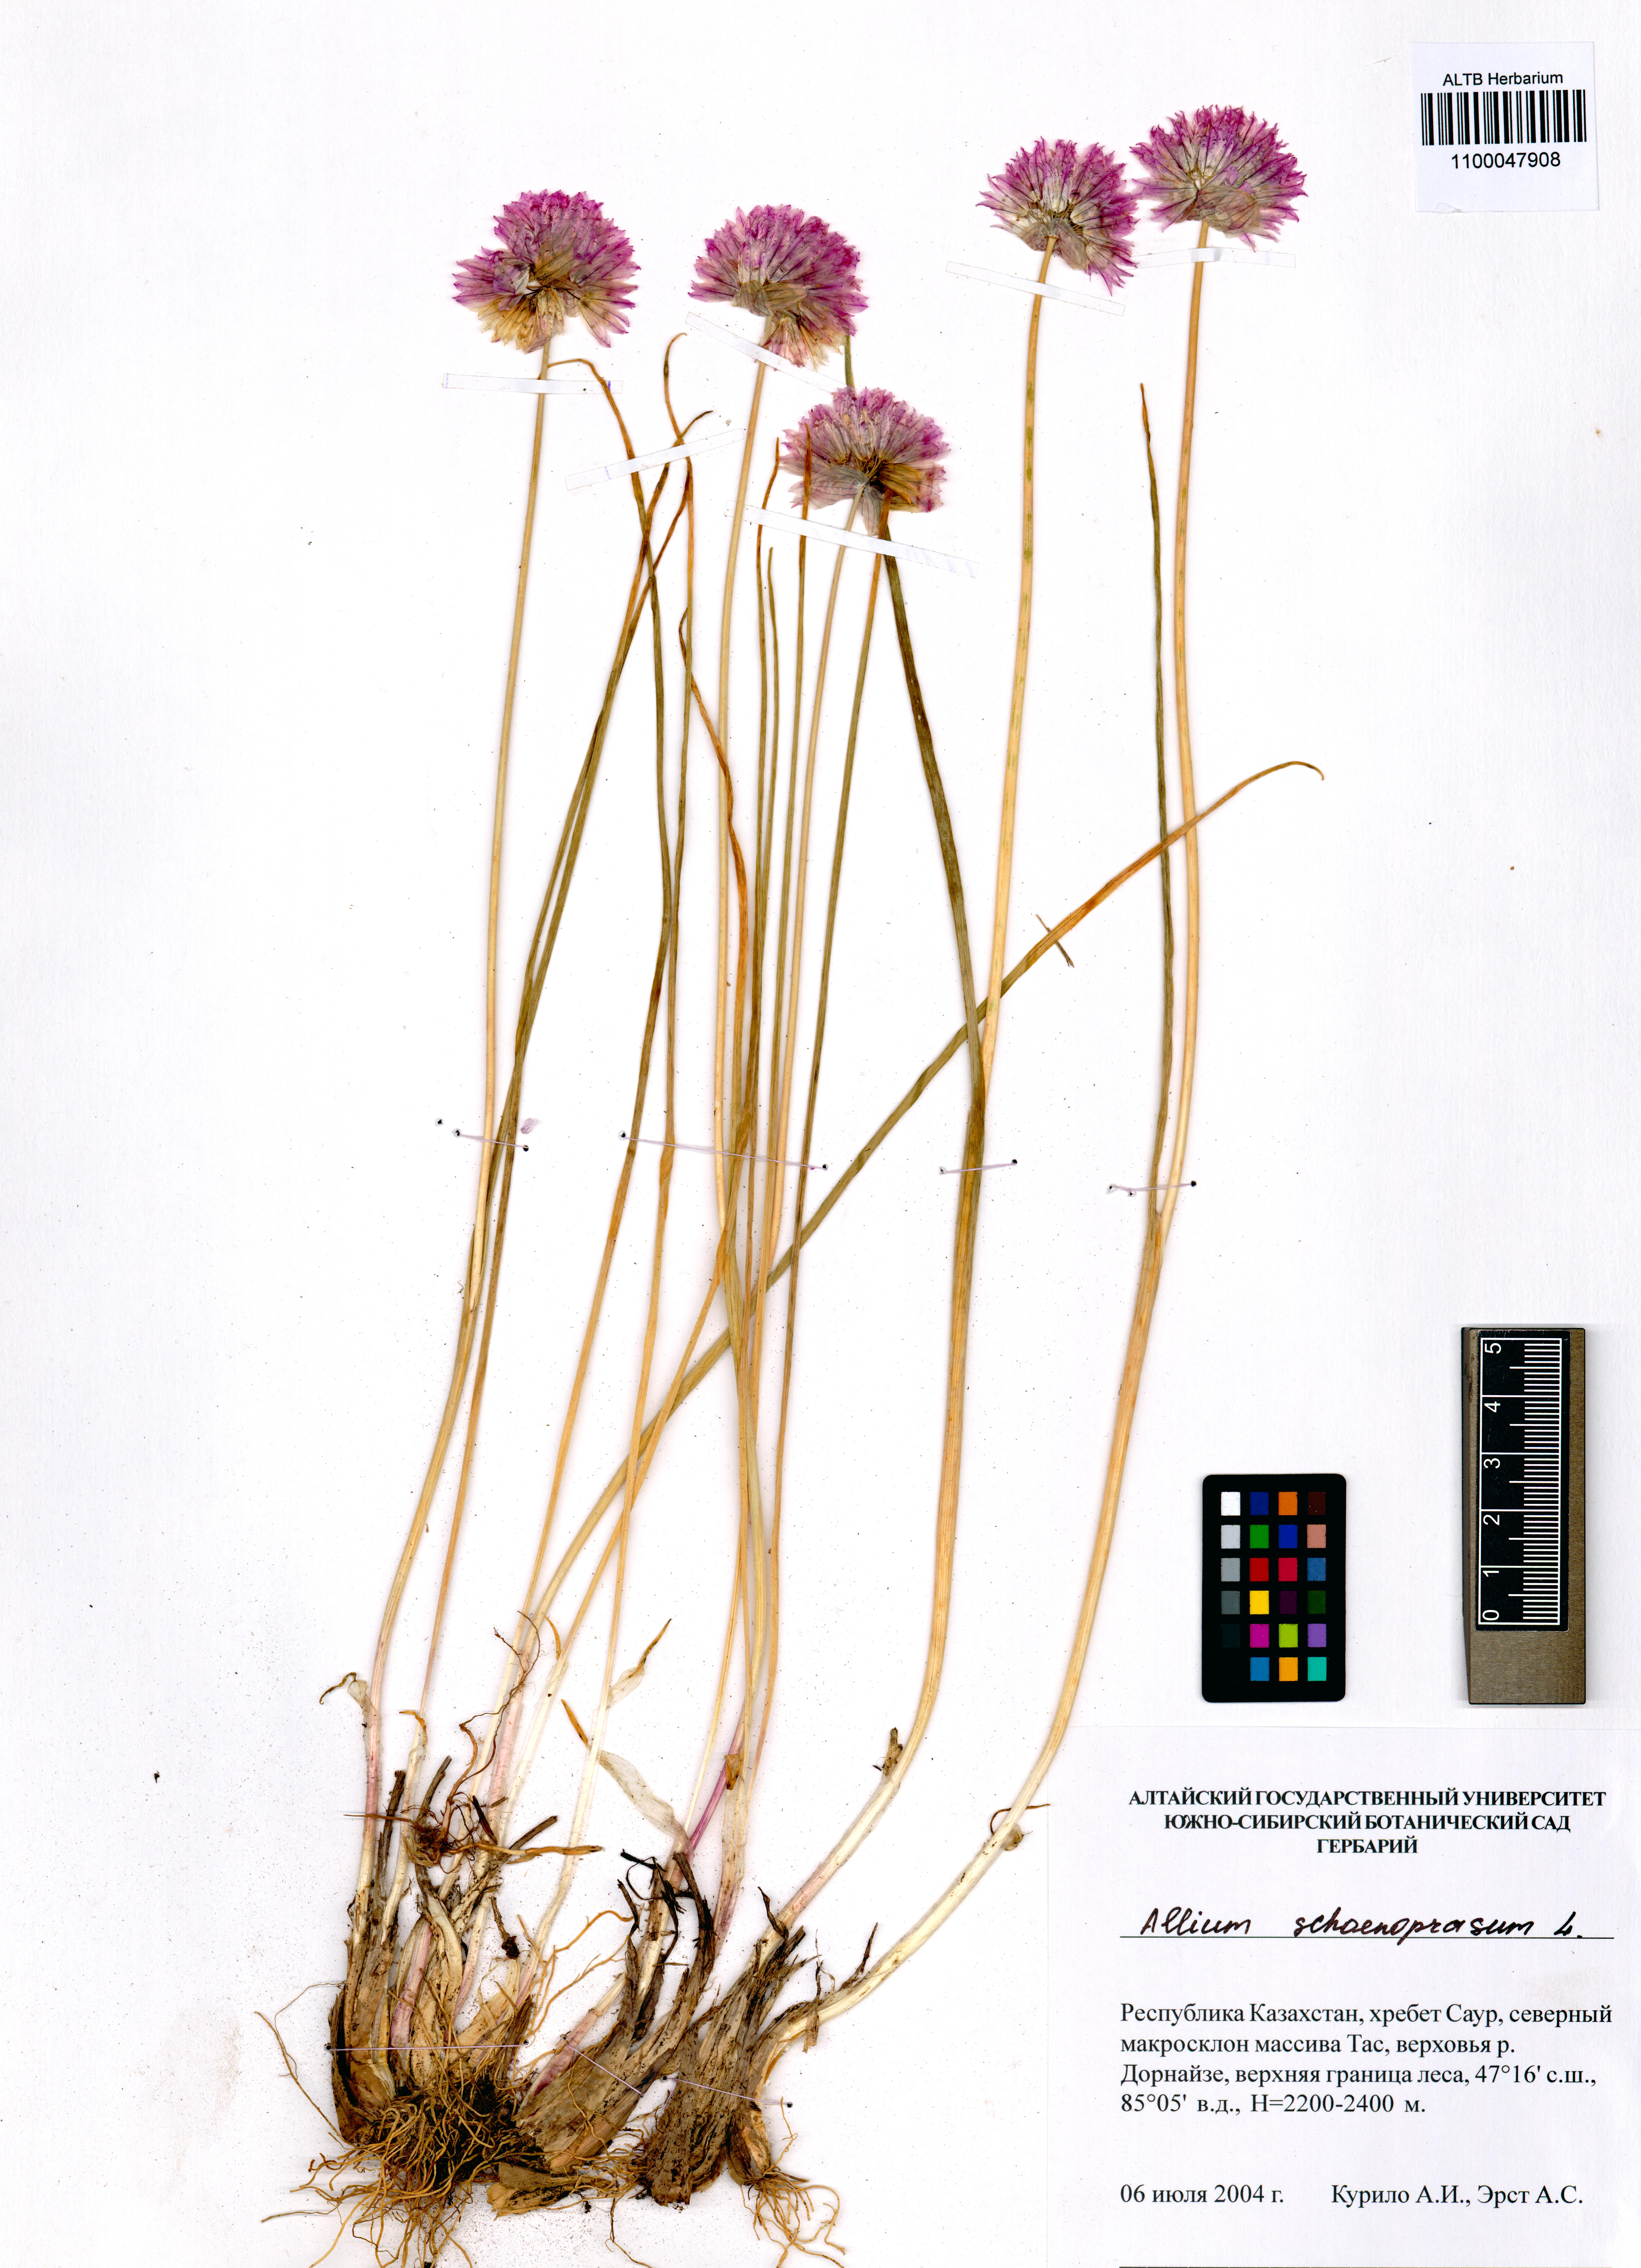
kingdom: Plantae
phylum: Tracheophyta
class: Liliopsida
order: Asparagales
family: Amaryllidaceae
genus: Allium
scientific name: Allium schoenoprasum
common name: Chives
